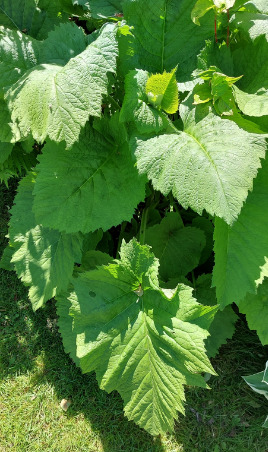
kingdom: Plantae
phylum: Tracheophyta
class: Magnoliopsida
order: Asterales
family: Asteraceae
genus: Telekia
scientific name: Telekia speciosa
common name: Tusindstråle
